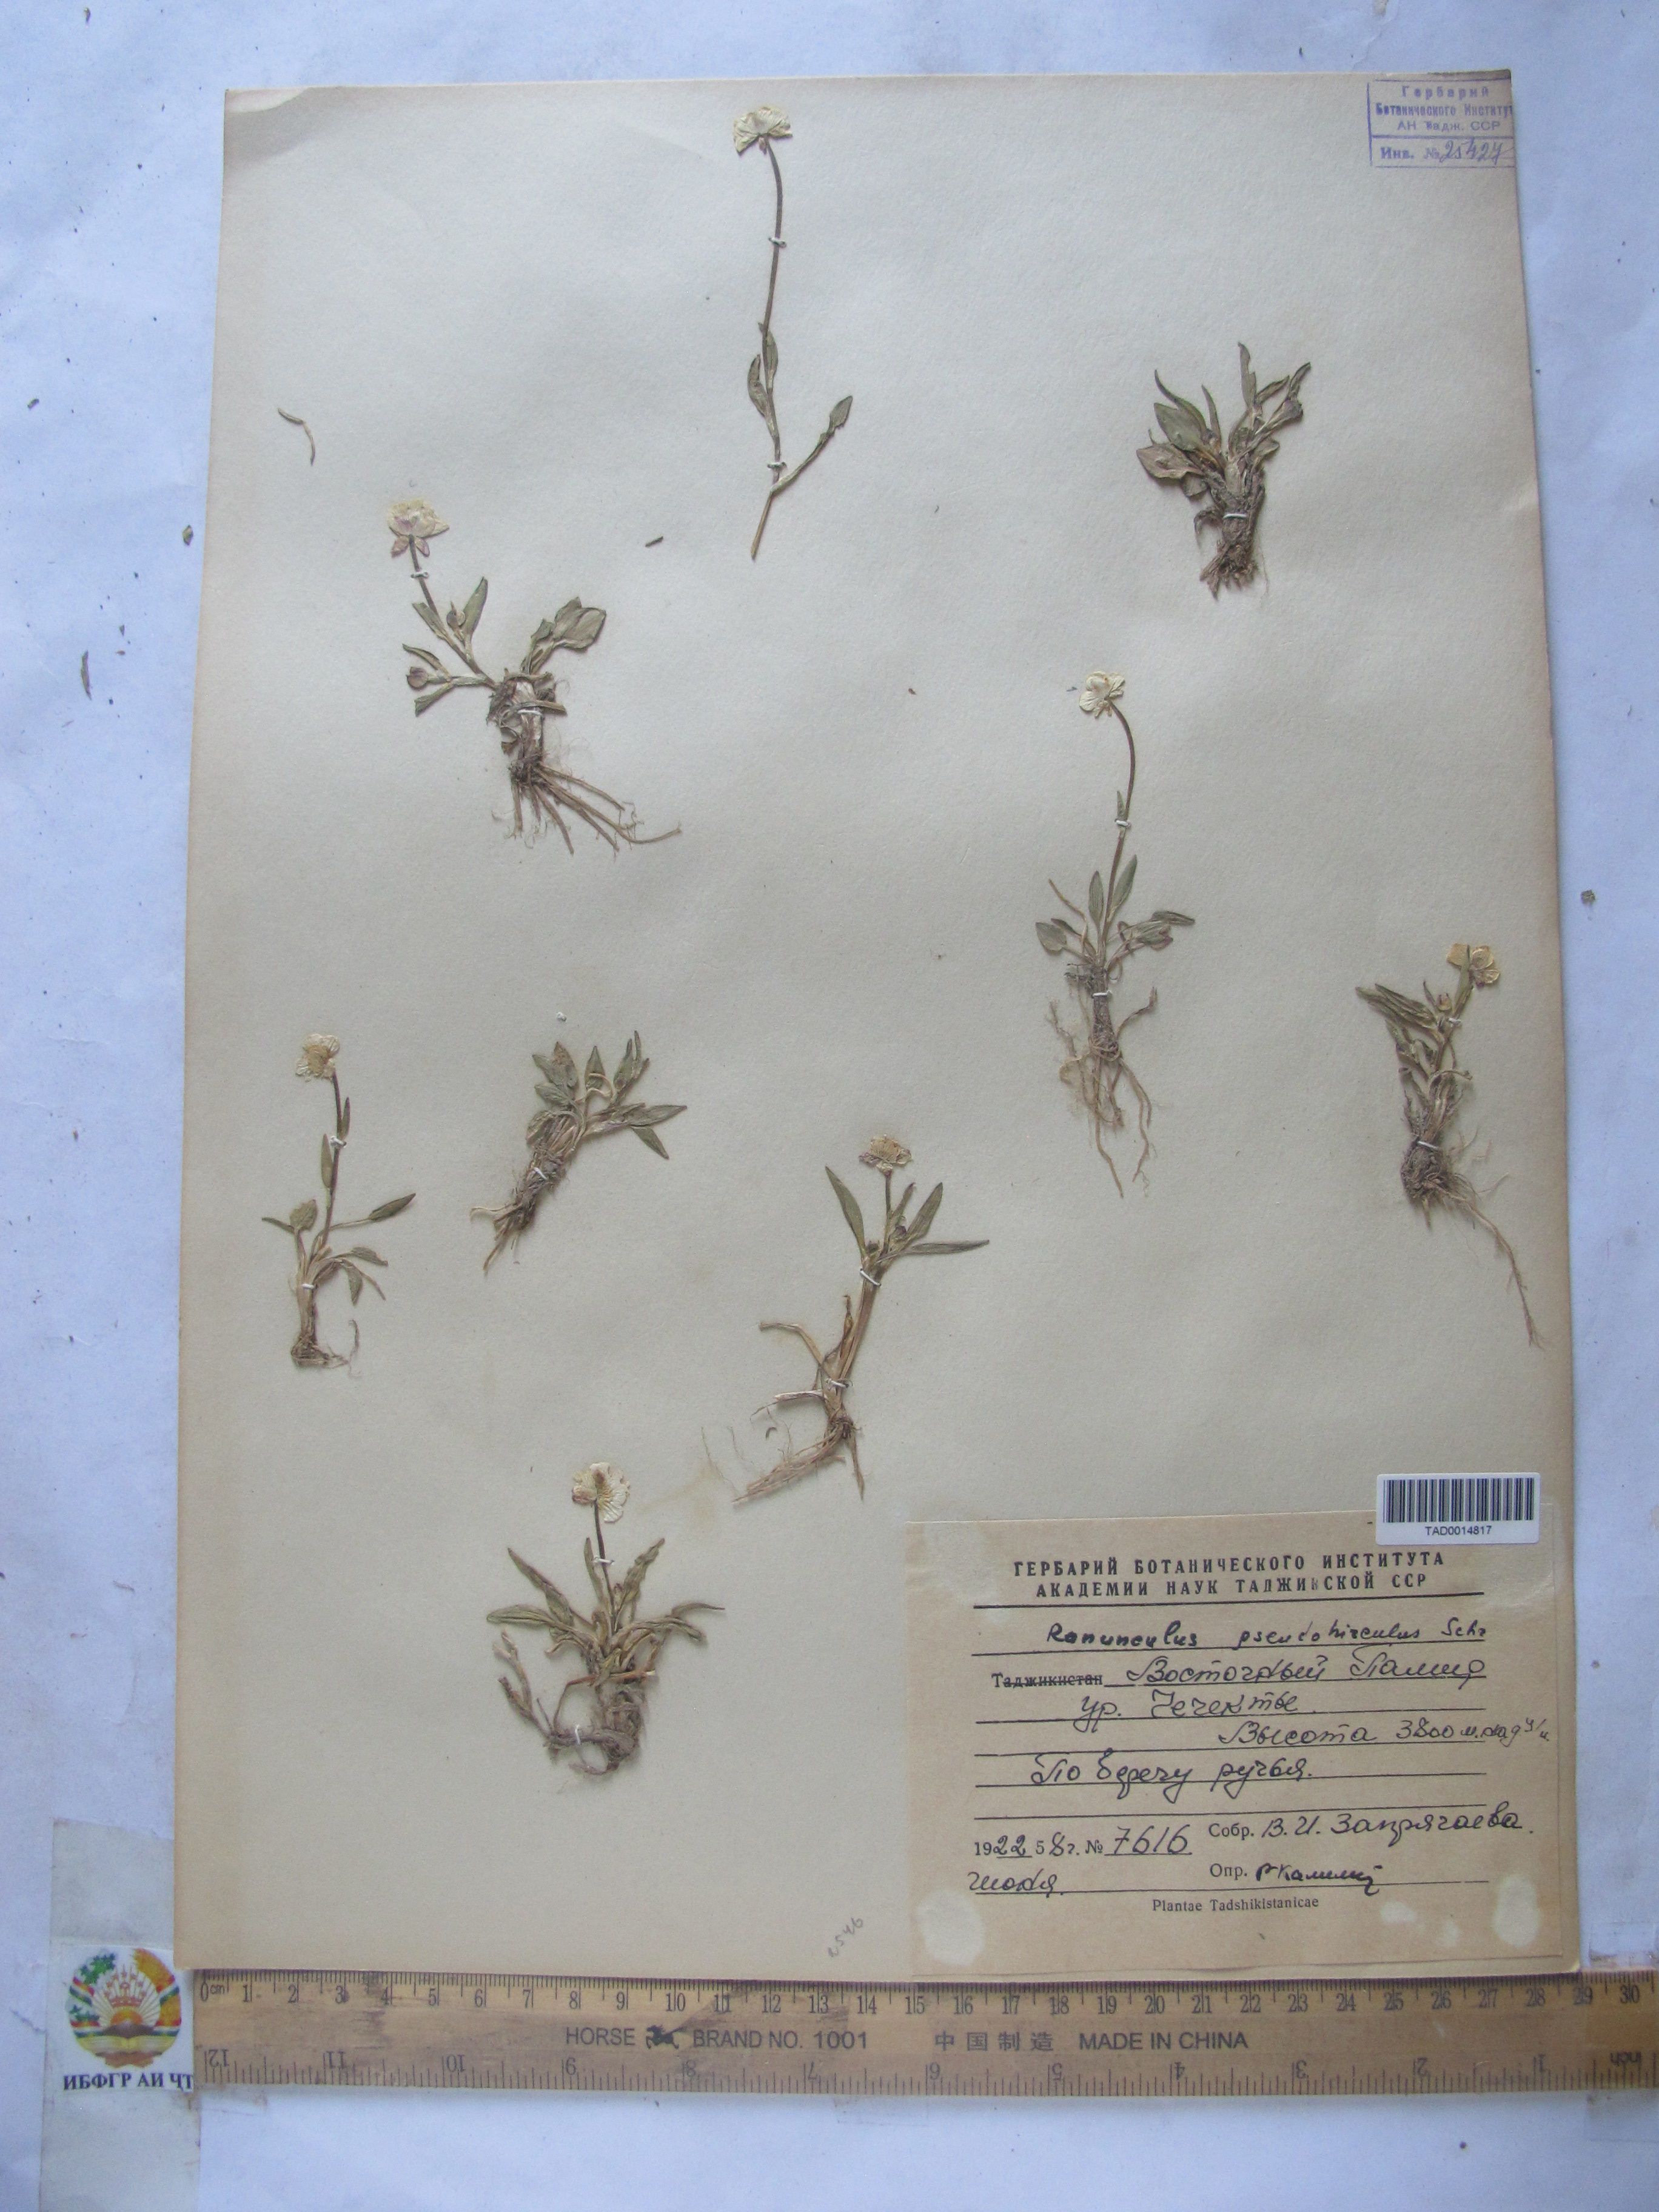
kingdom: Plantae
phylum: Tracheophyta
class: Magnoliopsida
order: Ranunculales
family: Ranunculaceae
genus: Ranunculus
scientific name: Ranunculus pseudohirculus
